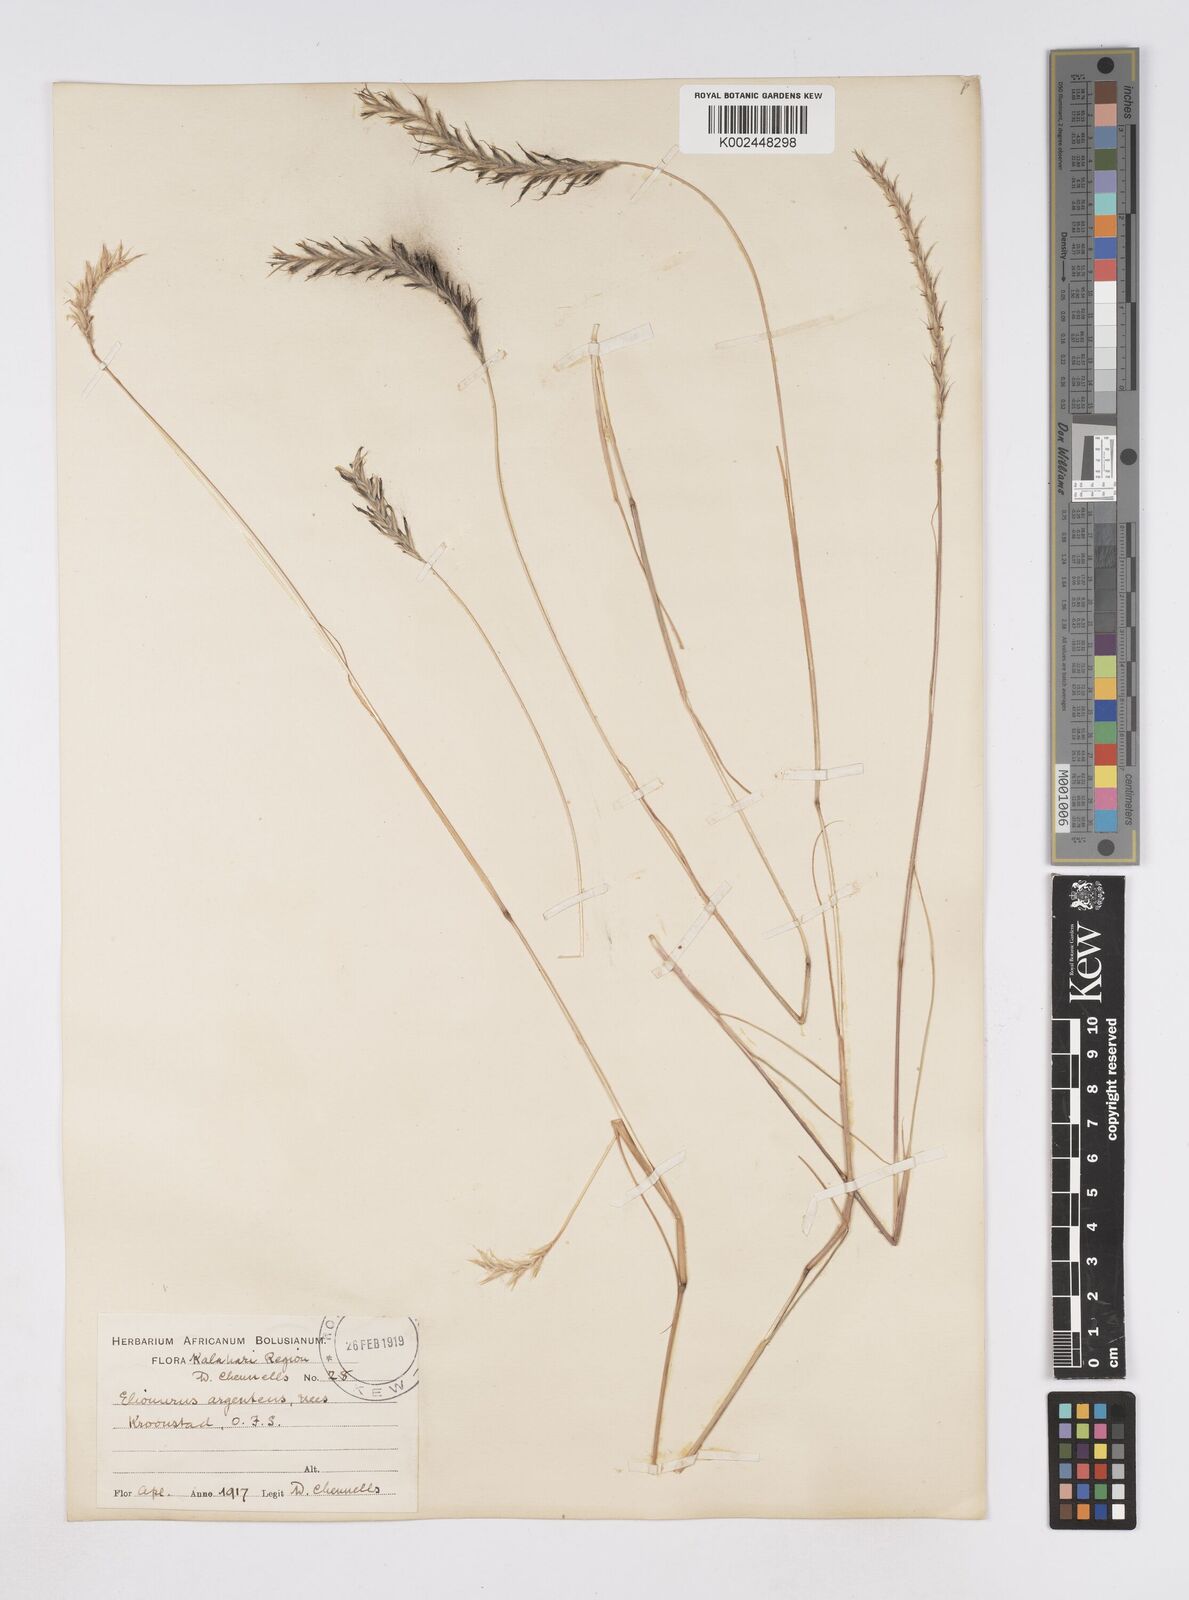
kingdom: Plantae
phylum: Tracheophyta
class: Liliopsida
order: Poales
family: Poaceae
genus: Elionurus
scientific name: Elionurus muticus
